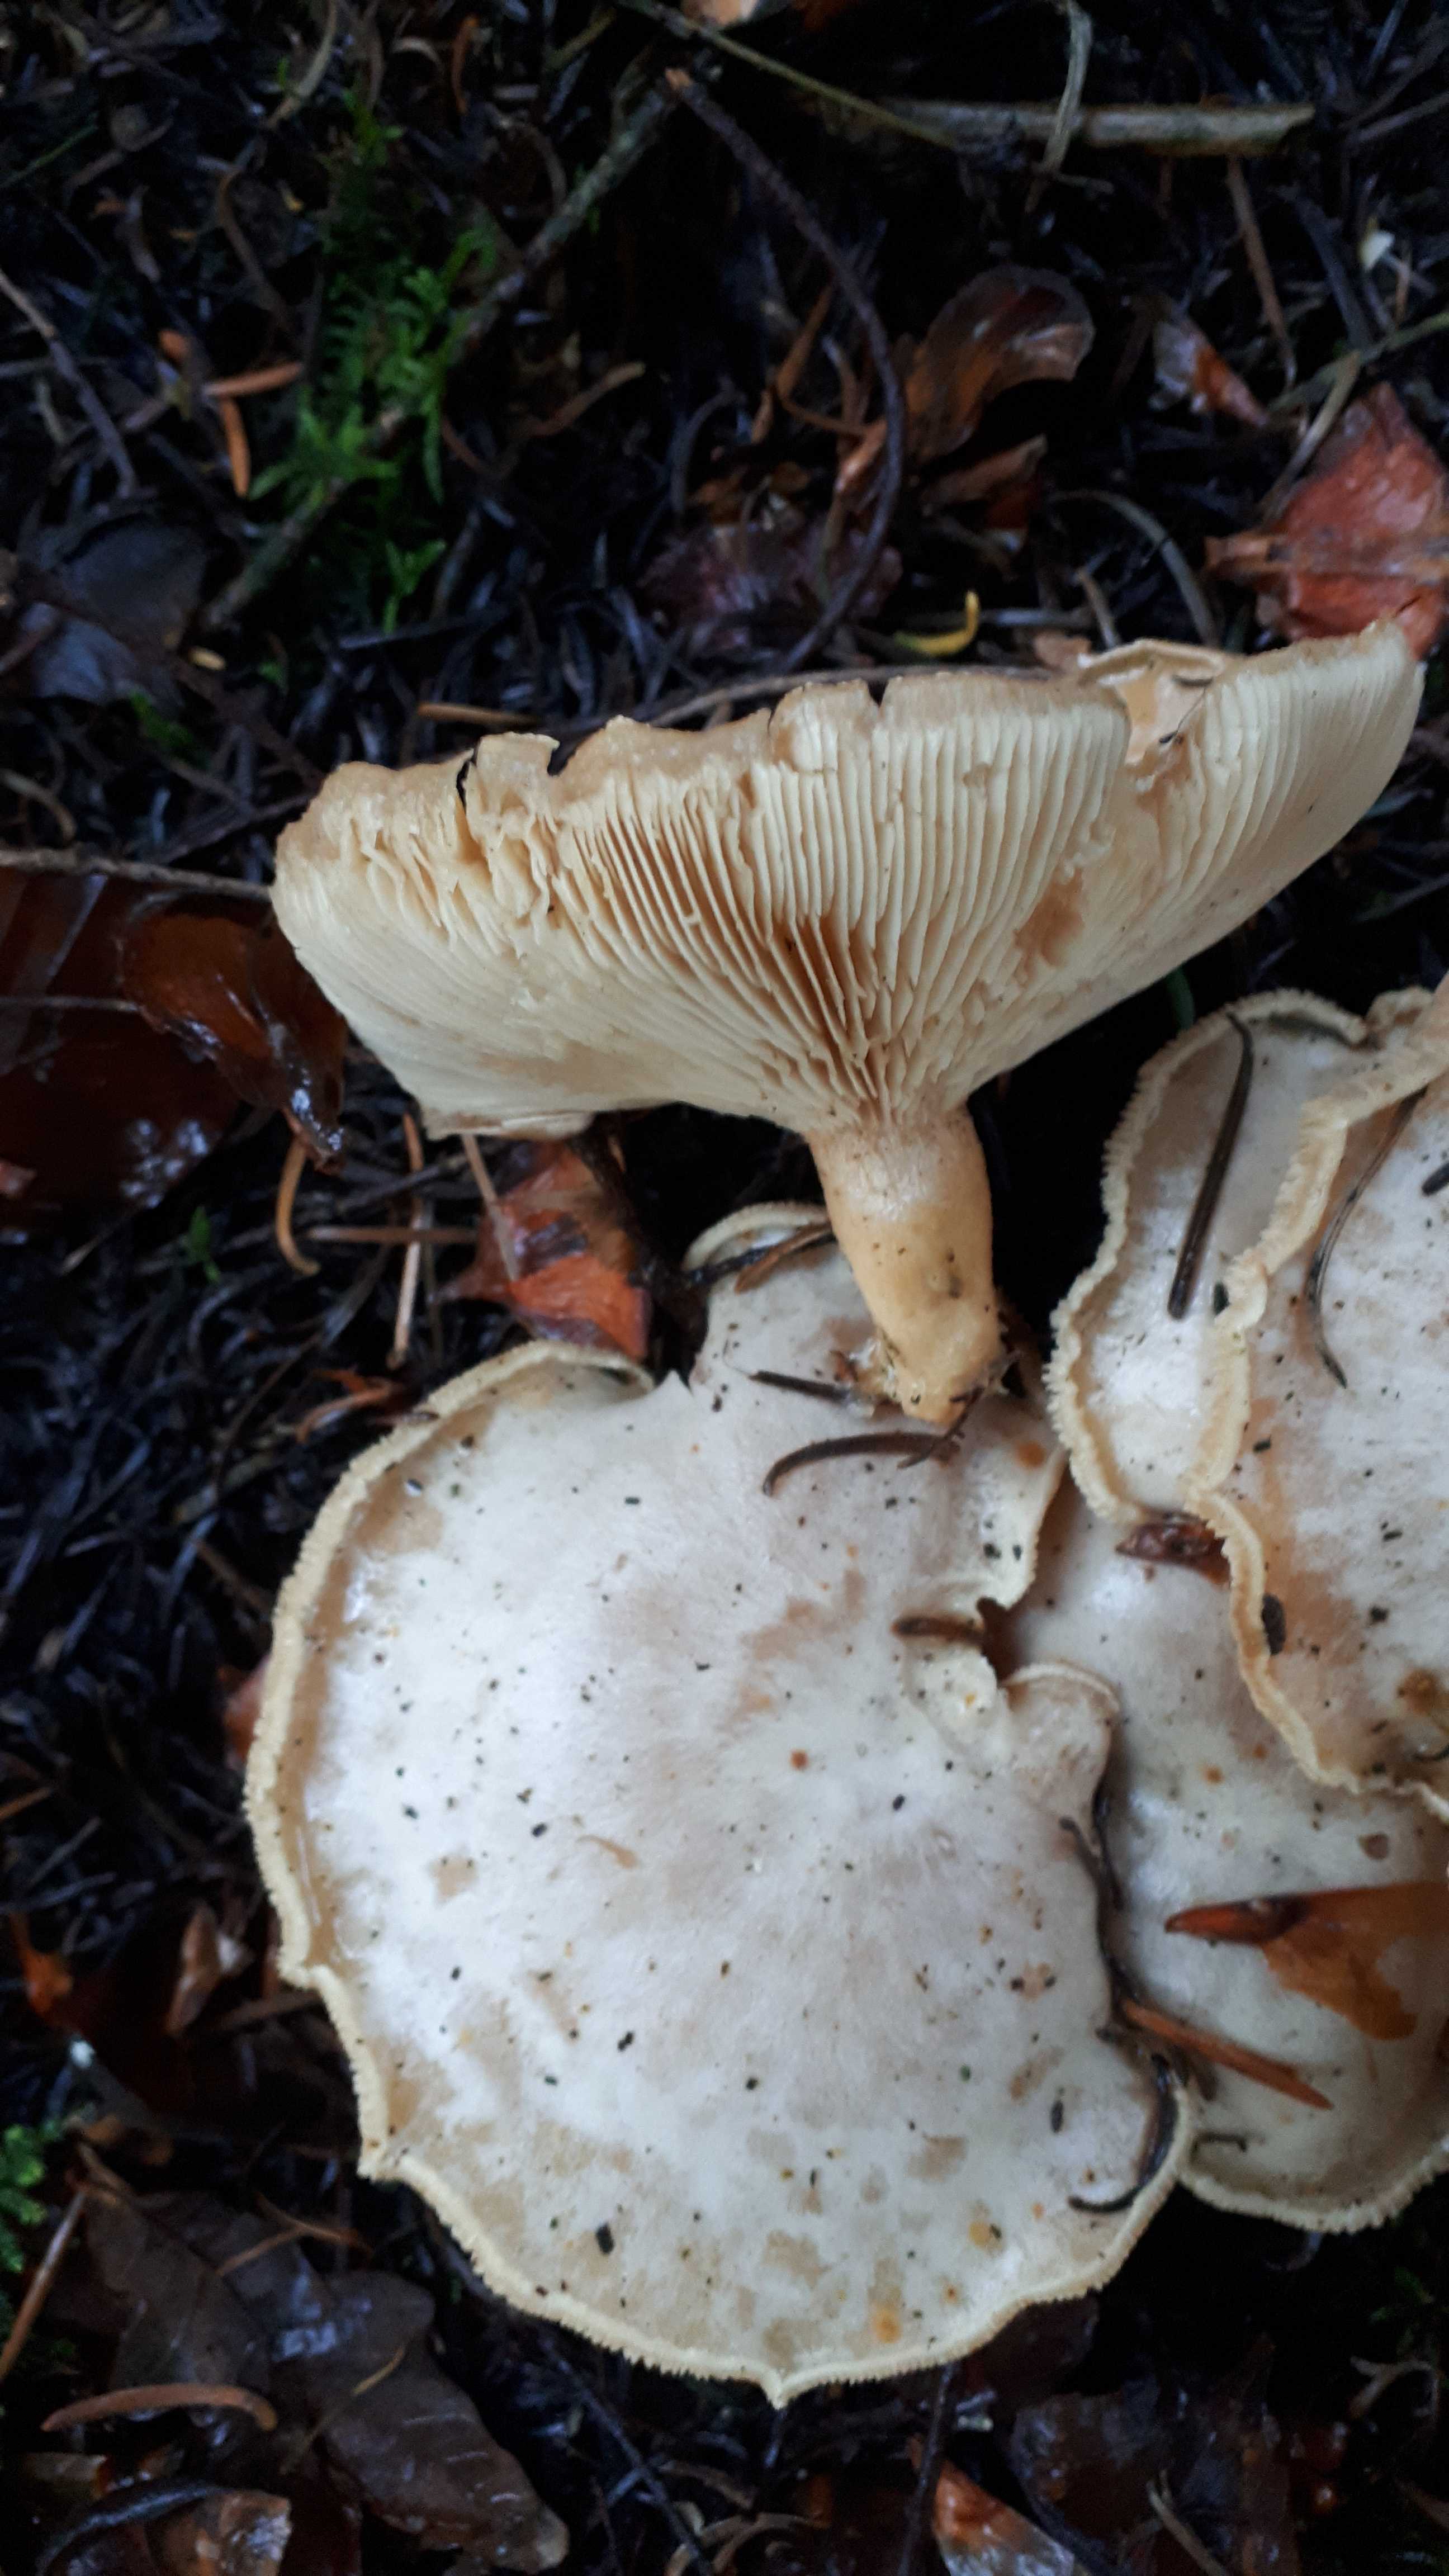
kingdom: Fungi
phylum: Basidiomycota
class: Agaricomycetes
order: Agaricales
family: Tricholomataceae
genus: Clitocybe
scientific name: Clitocybe phyllophila
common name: løv-tragthat
